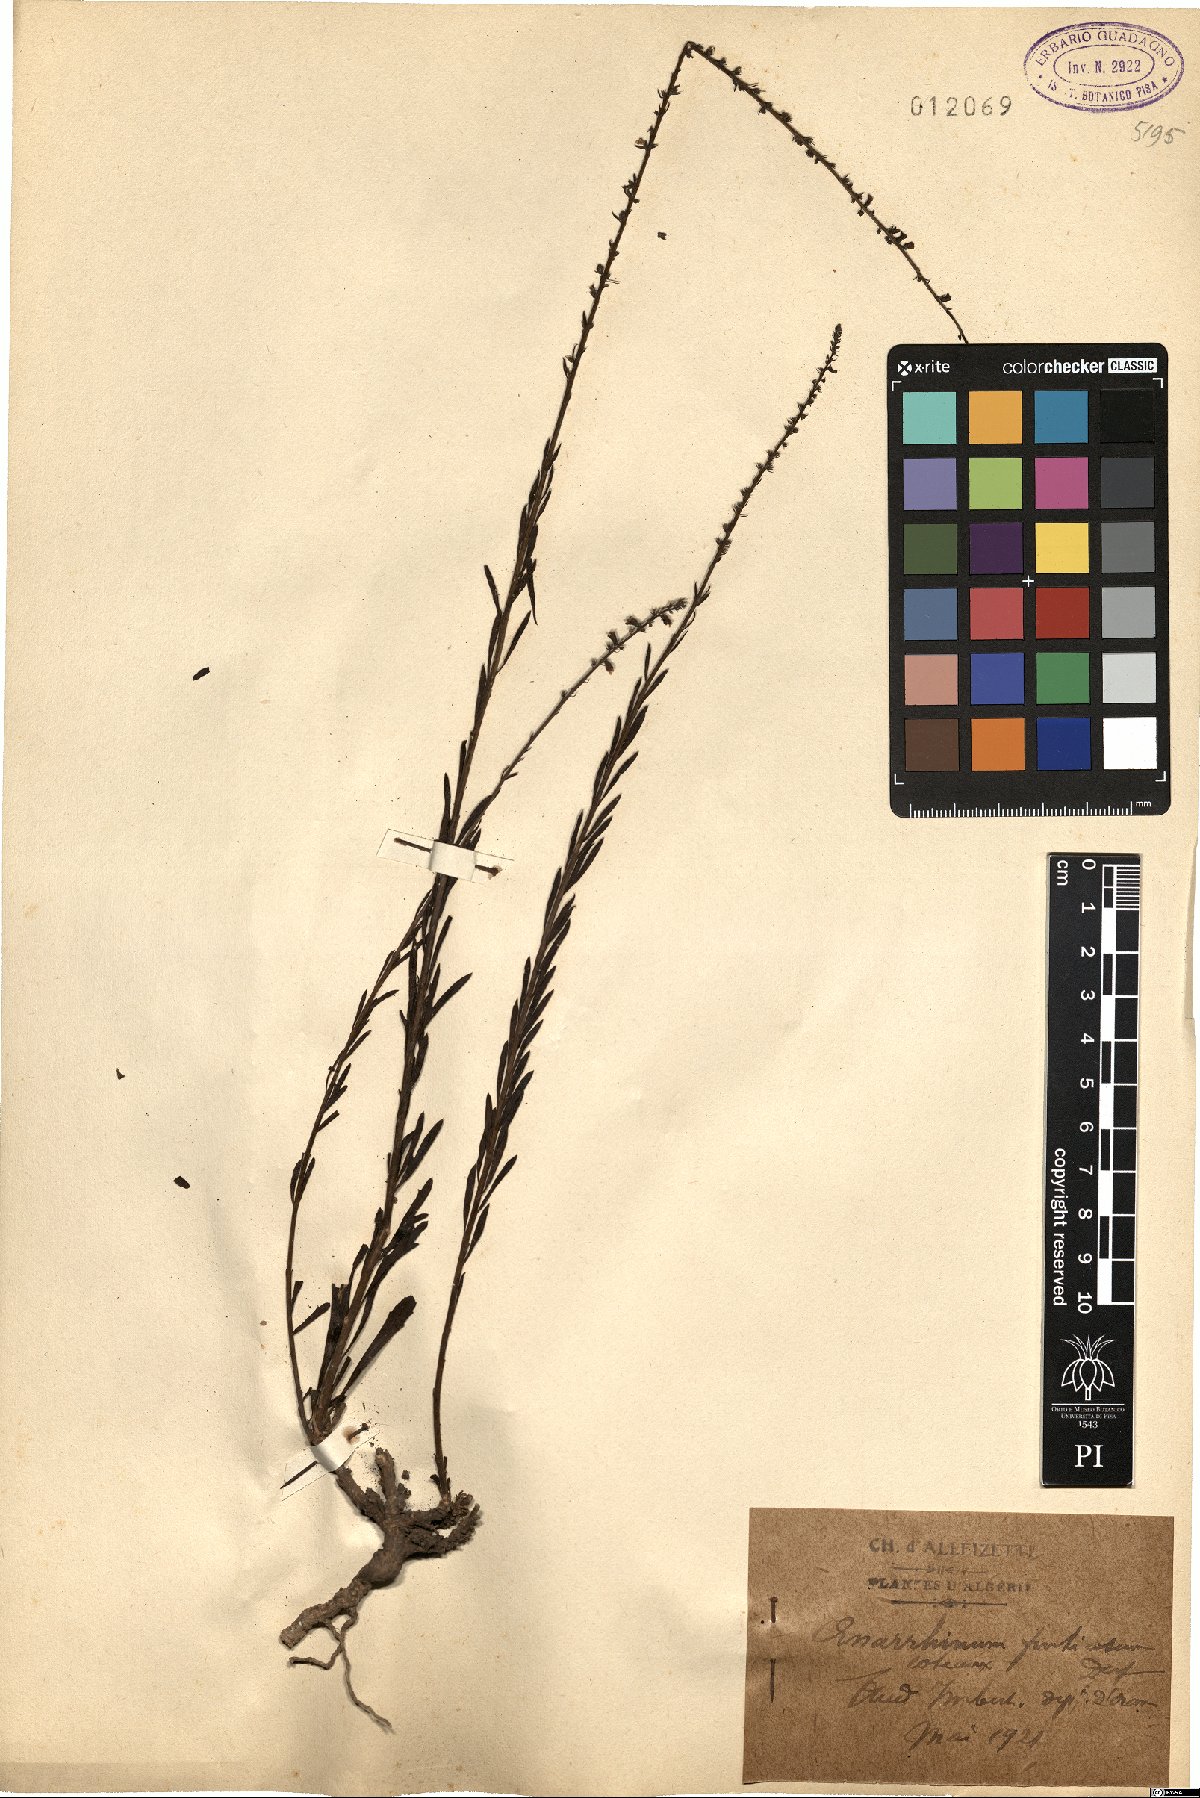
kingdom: Plantae
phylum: Tracheophyta
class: Magnoliopsida
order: Lamiales
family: Plantaginaceae
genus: Anarrhinum
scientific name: Anarrhinum fruticosum
